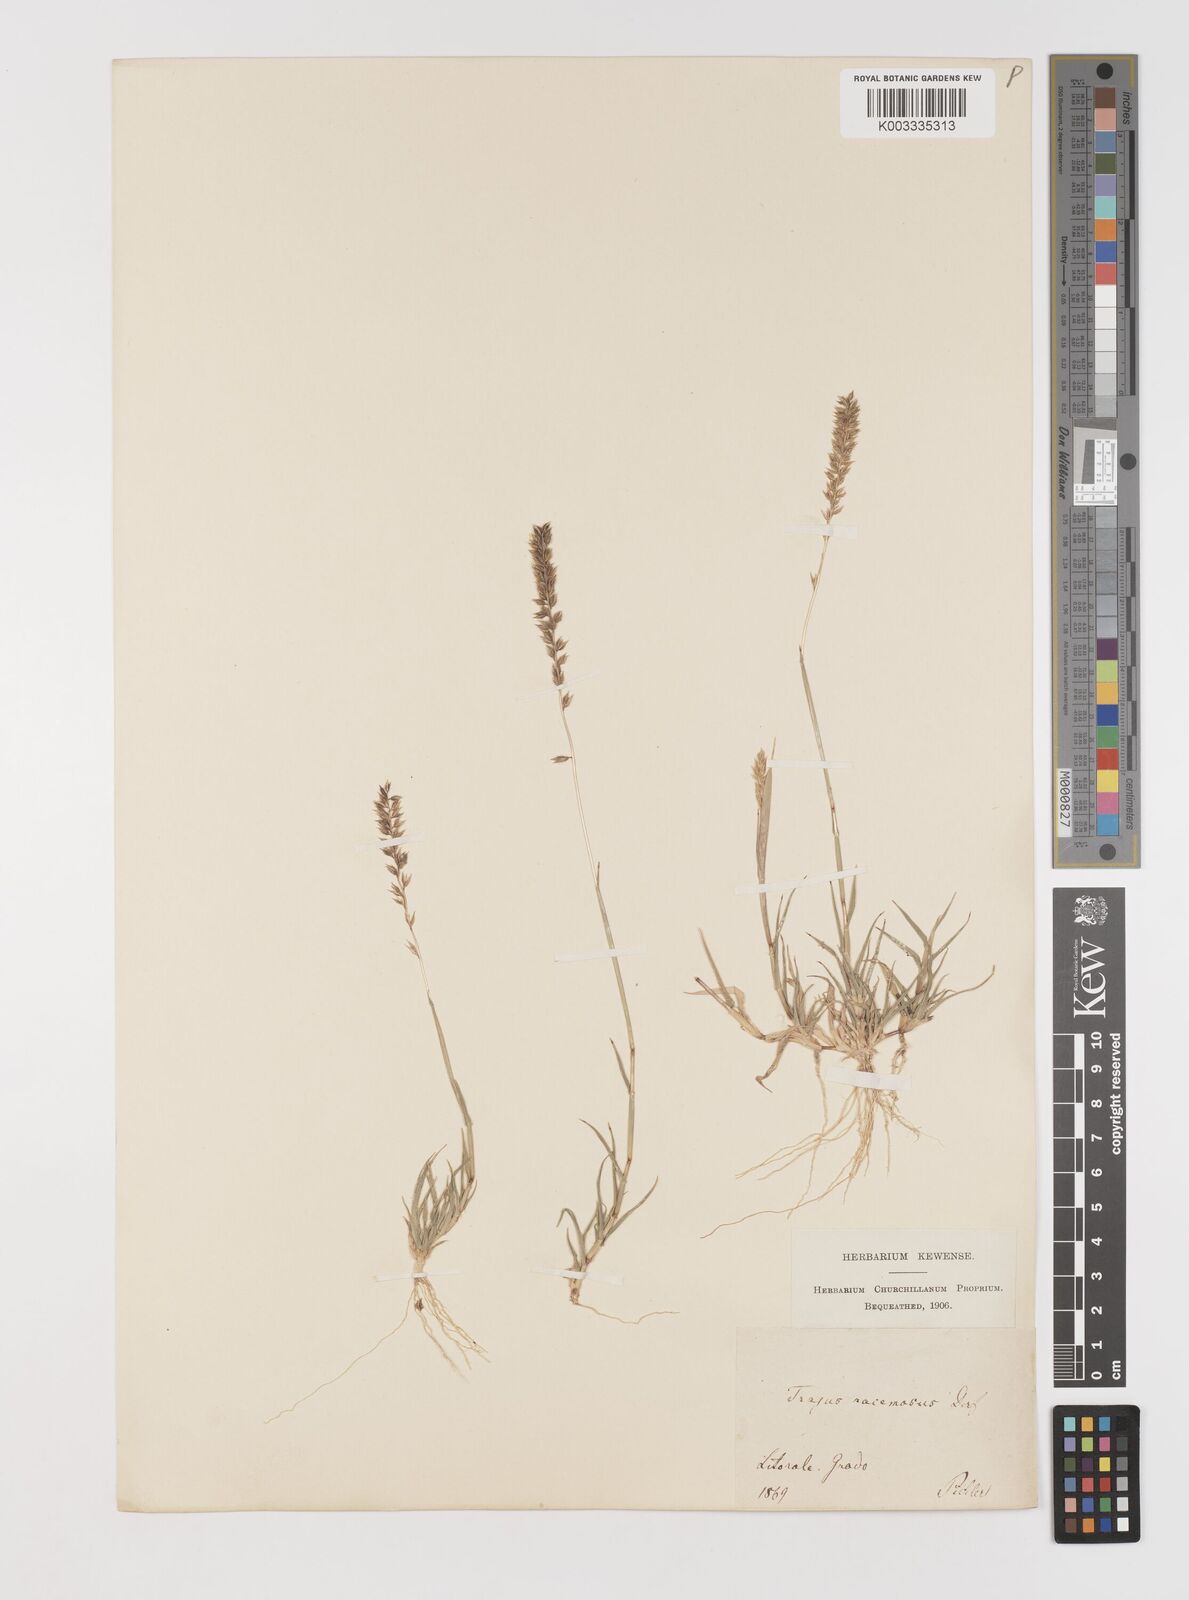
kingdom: Plantae
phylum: Tracheophyta
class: Liliopsida
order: Poales
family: Poaceae
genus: Tragus
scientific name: Tragus racemosus
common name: European bur-grass
